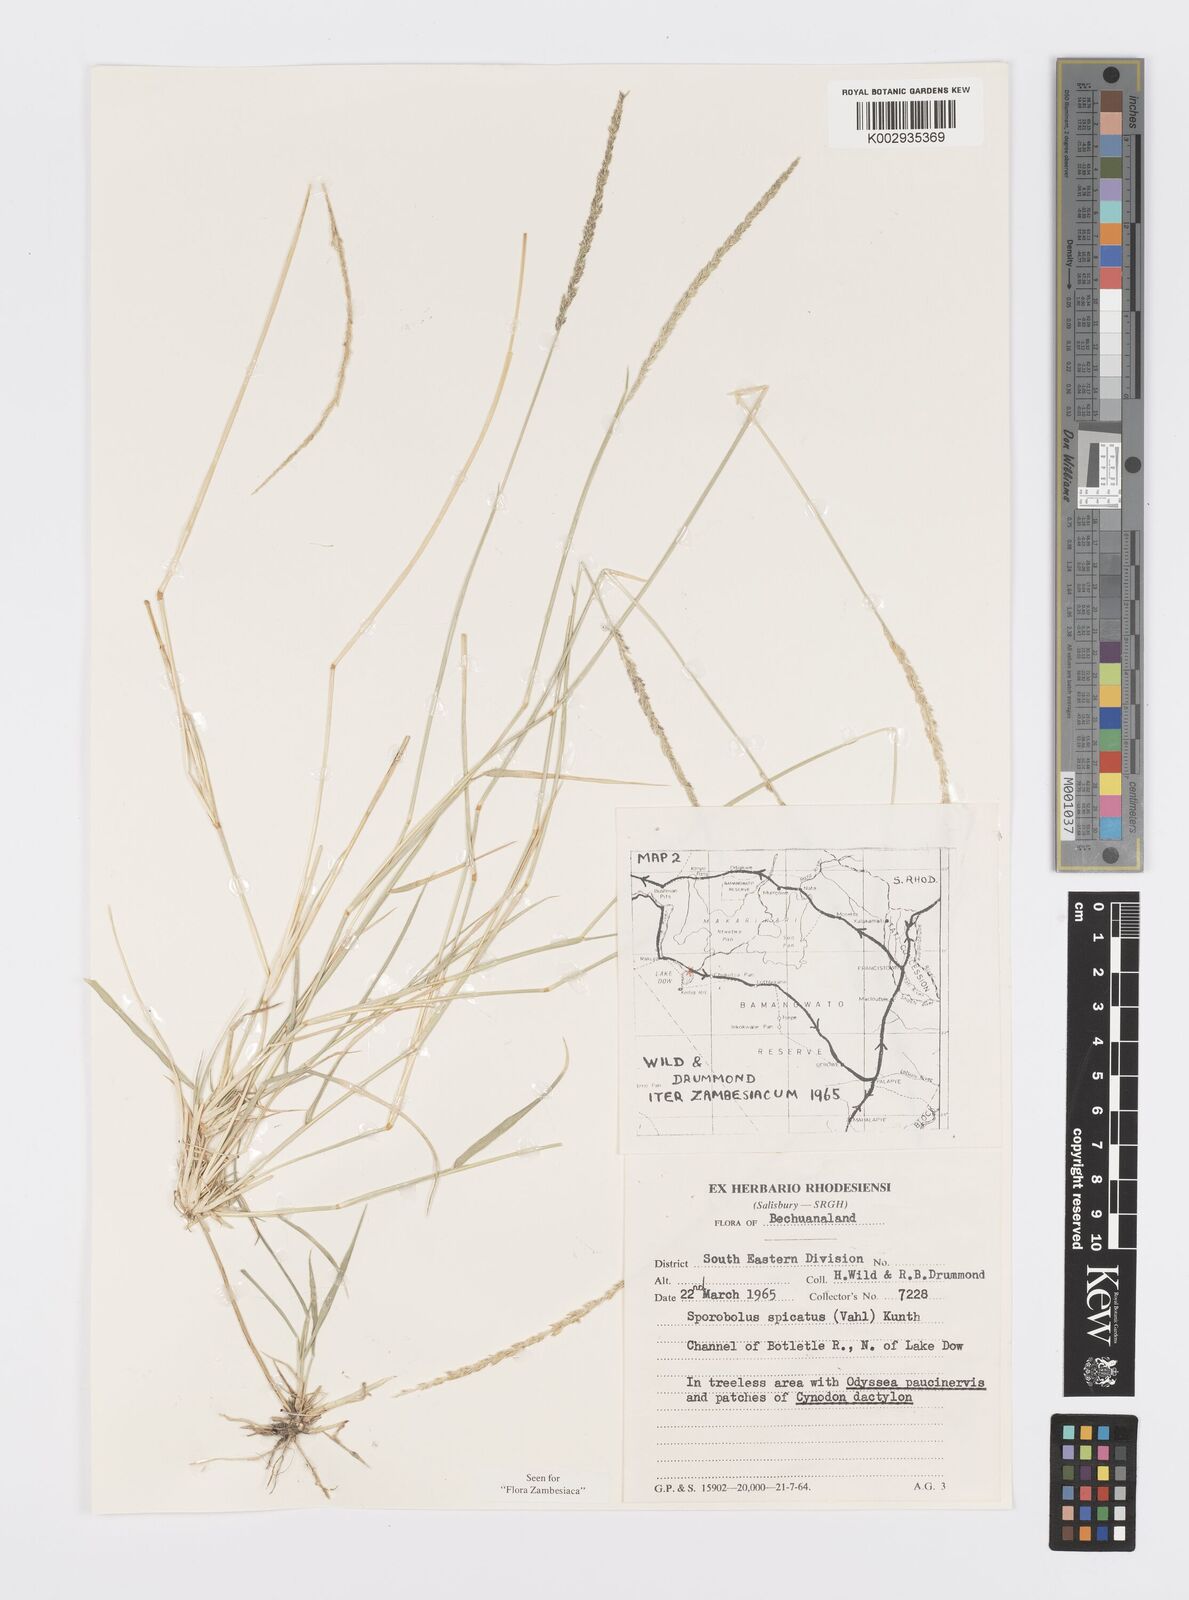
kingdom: Plantae
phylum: Tracheophyta
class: Liliopsida
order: Poales
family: Poaceae
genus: Sporobolus
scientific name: Sporobolus spicatus
